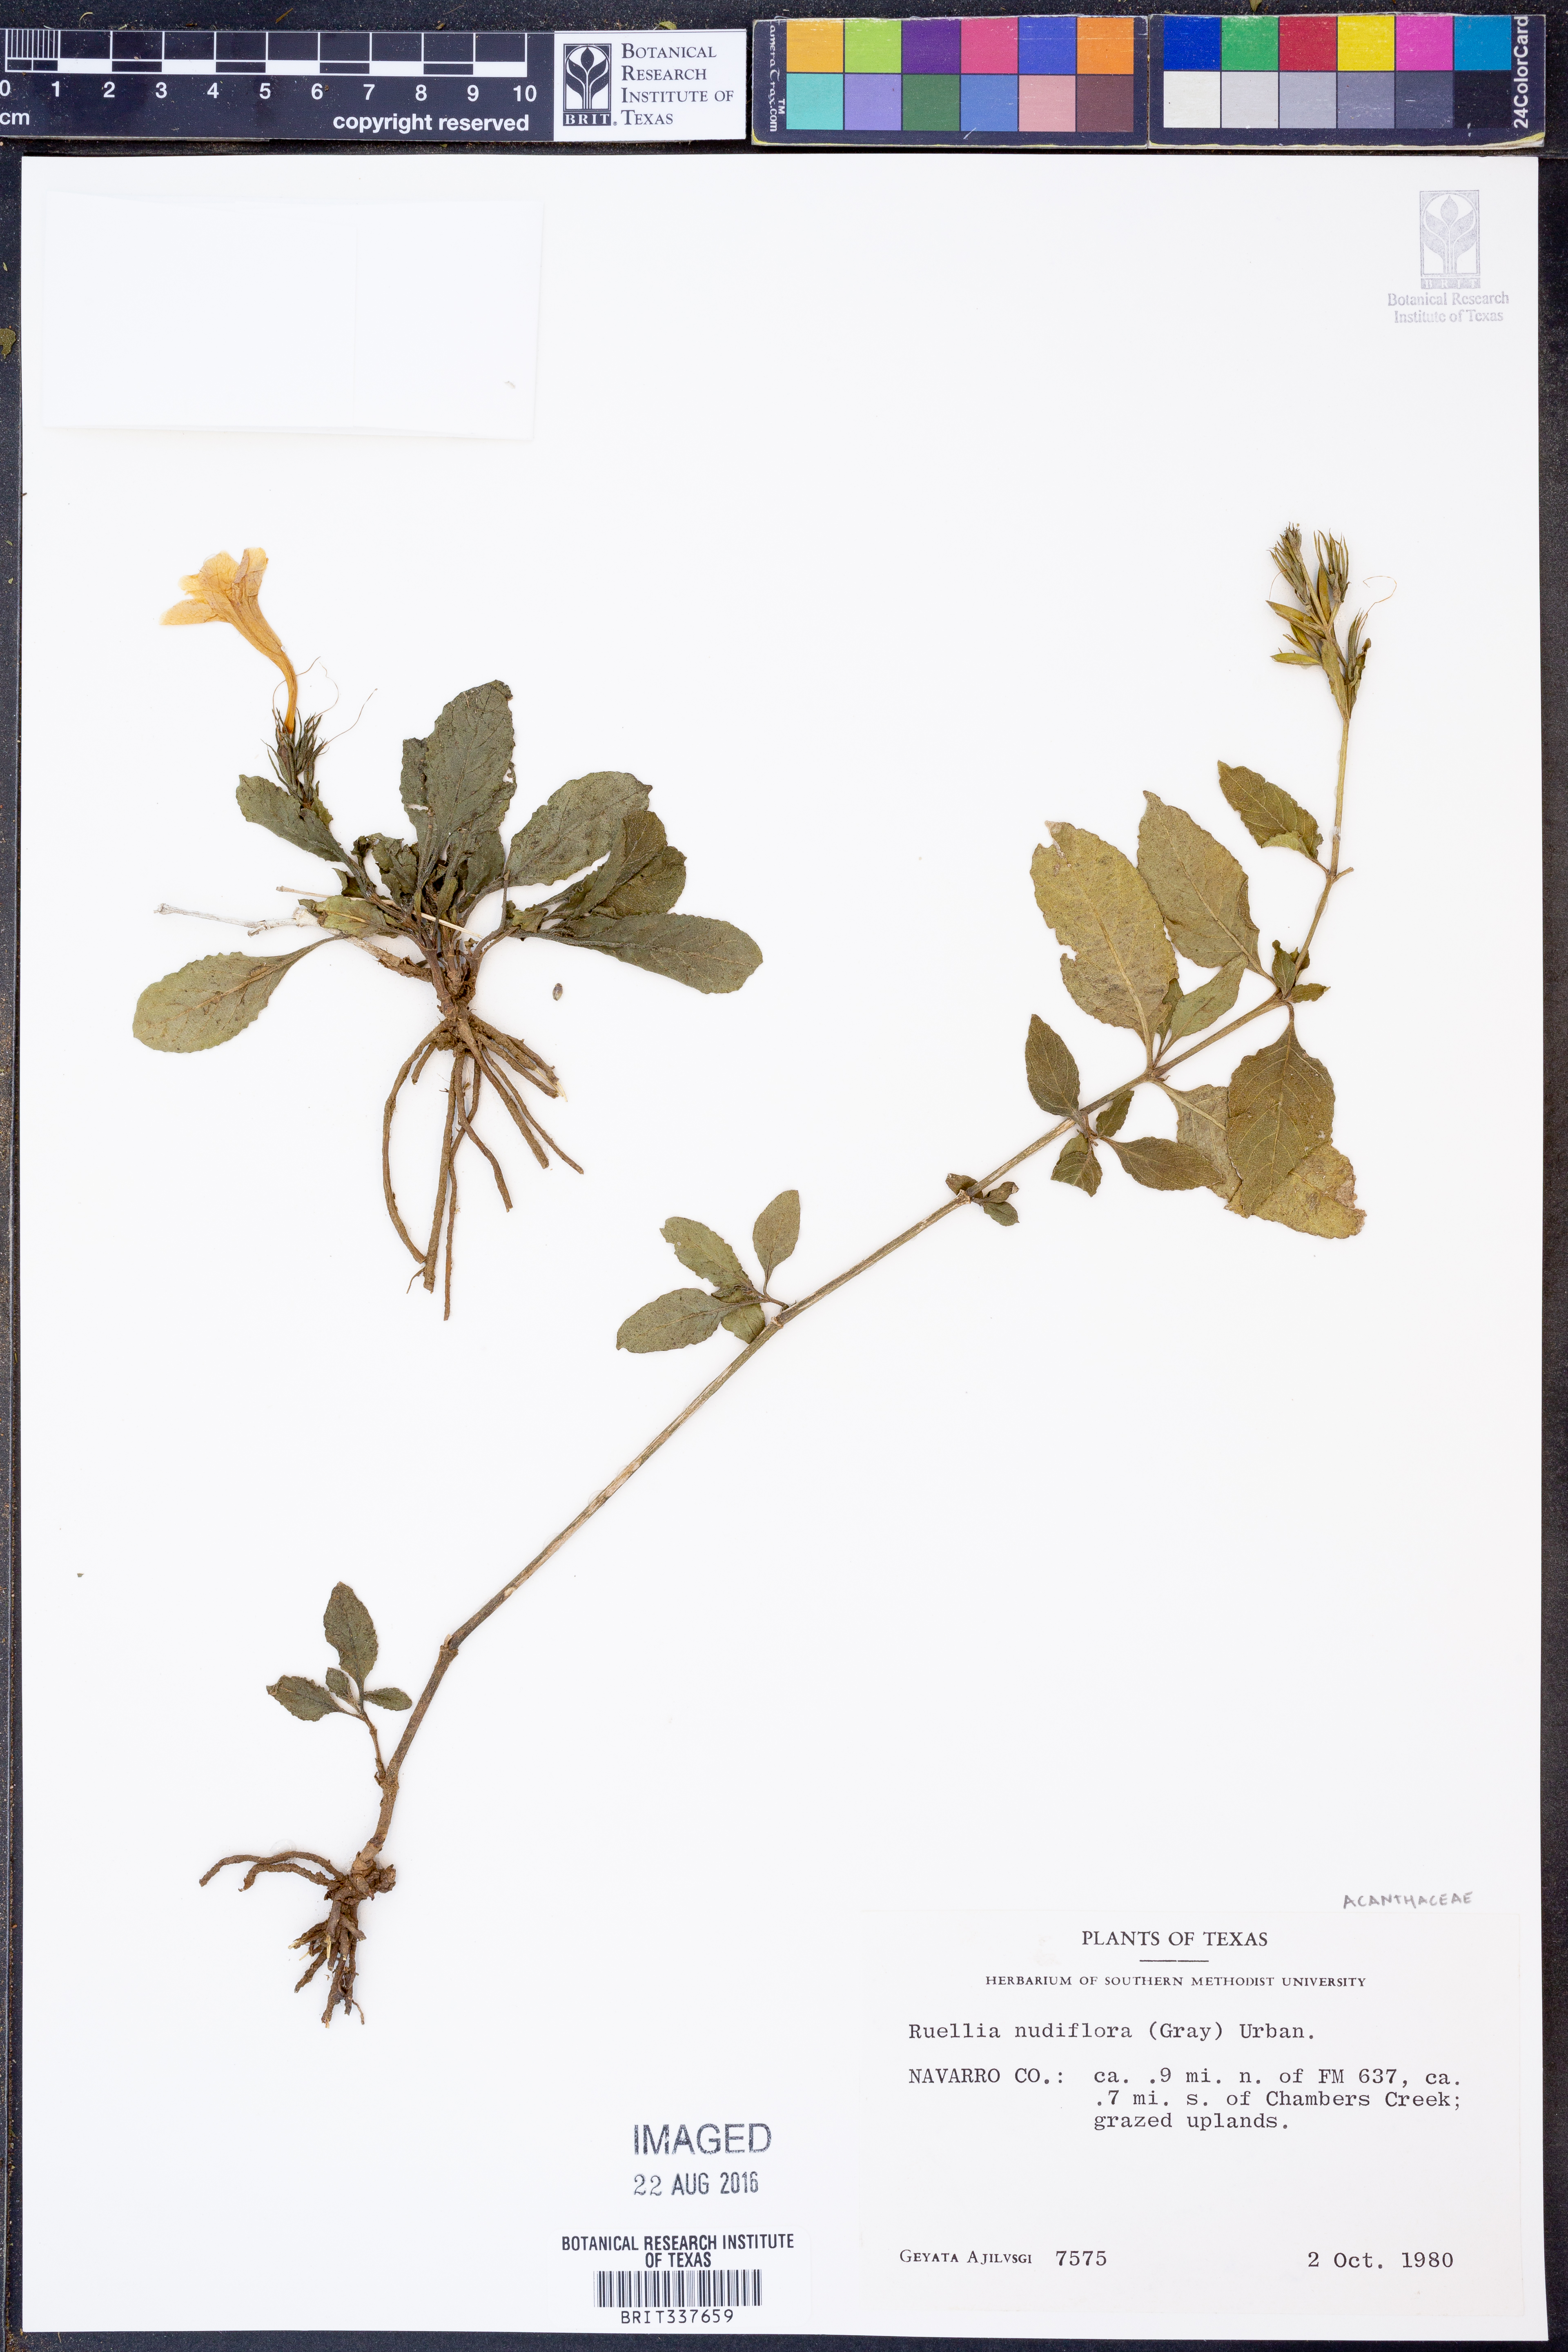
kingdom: Plantae
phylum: Tracheophyta
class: Magnoliopsida
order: Lamiales
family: Acanthaceae
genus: Ruellia
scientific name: Ruellia ciliatiflora
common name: Hairyflower wild petunia
